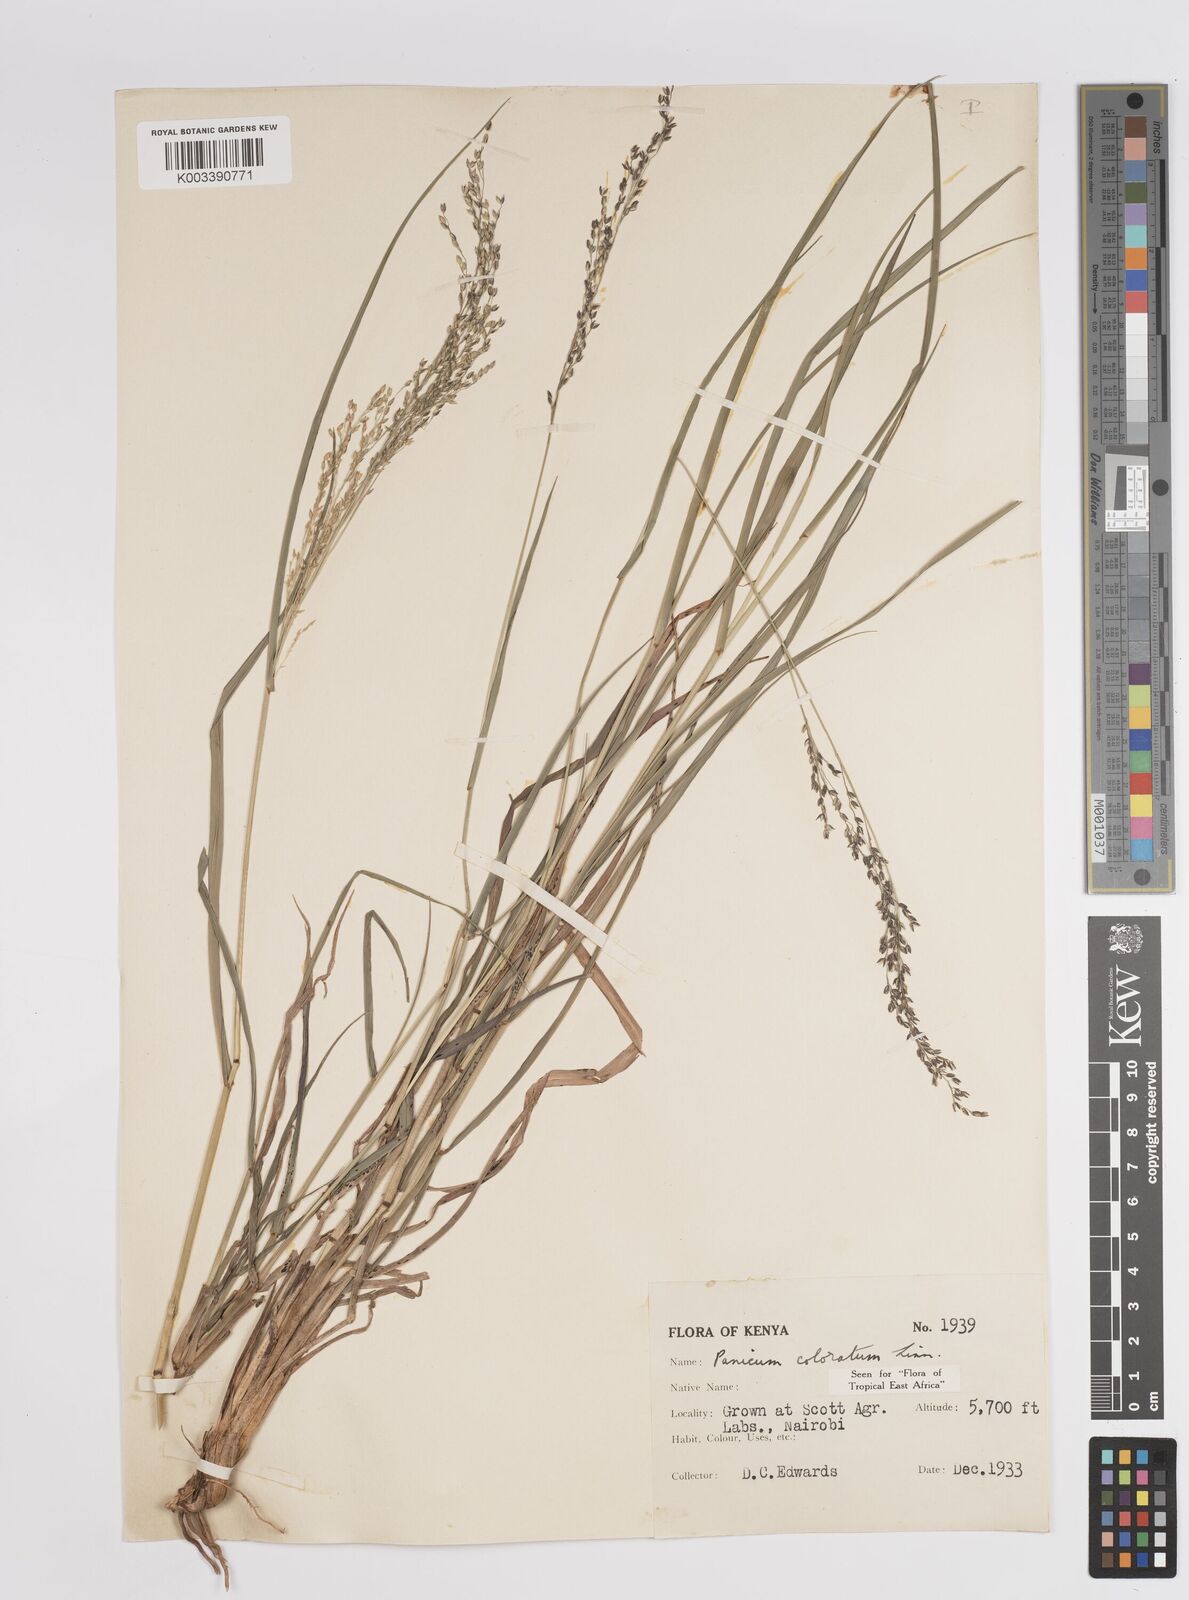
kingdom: Plantae
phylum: Tracheophyta
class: Liliopsida
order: Poales
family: Poaceae
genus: Panicum
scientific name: Panicum coloratum
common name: Kleingrass
